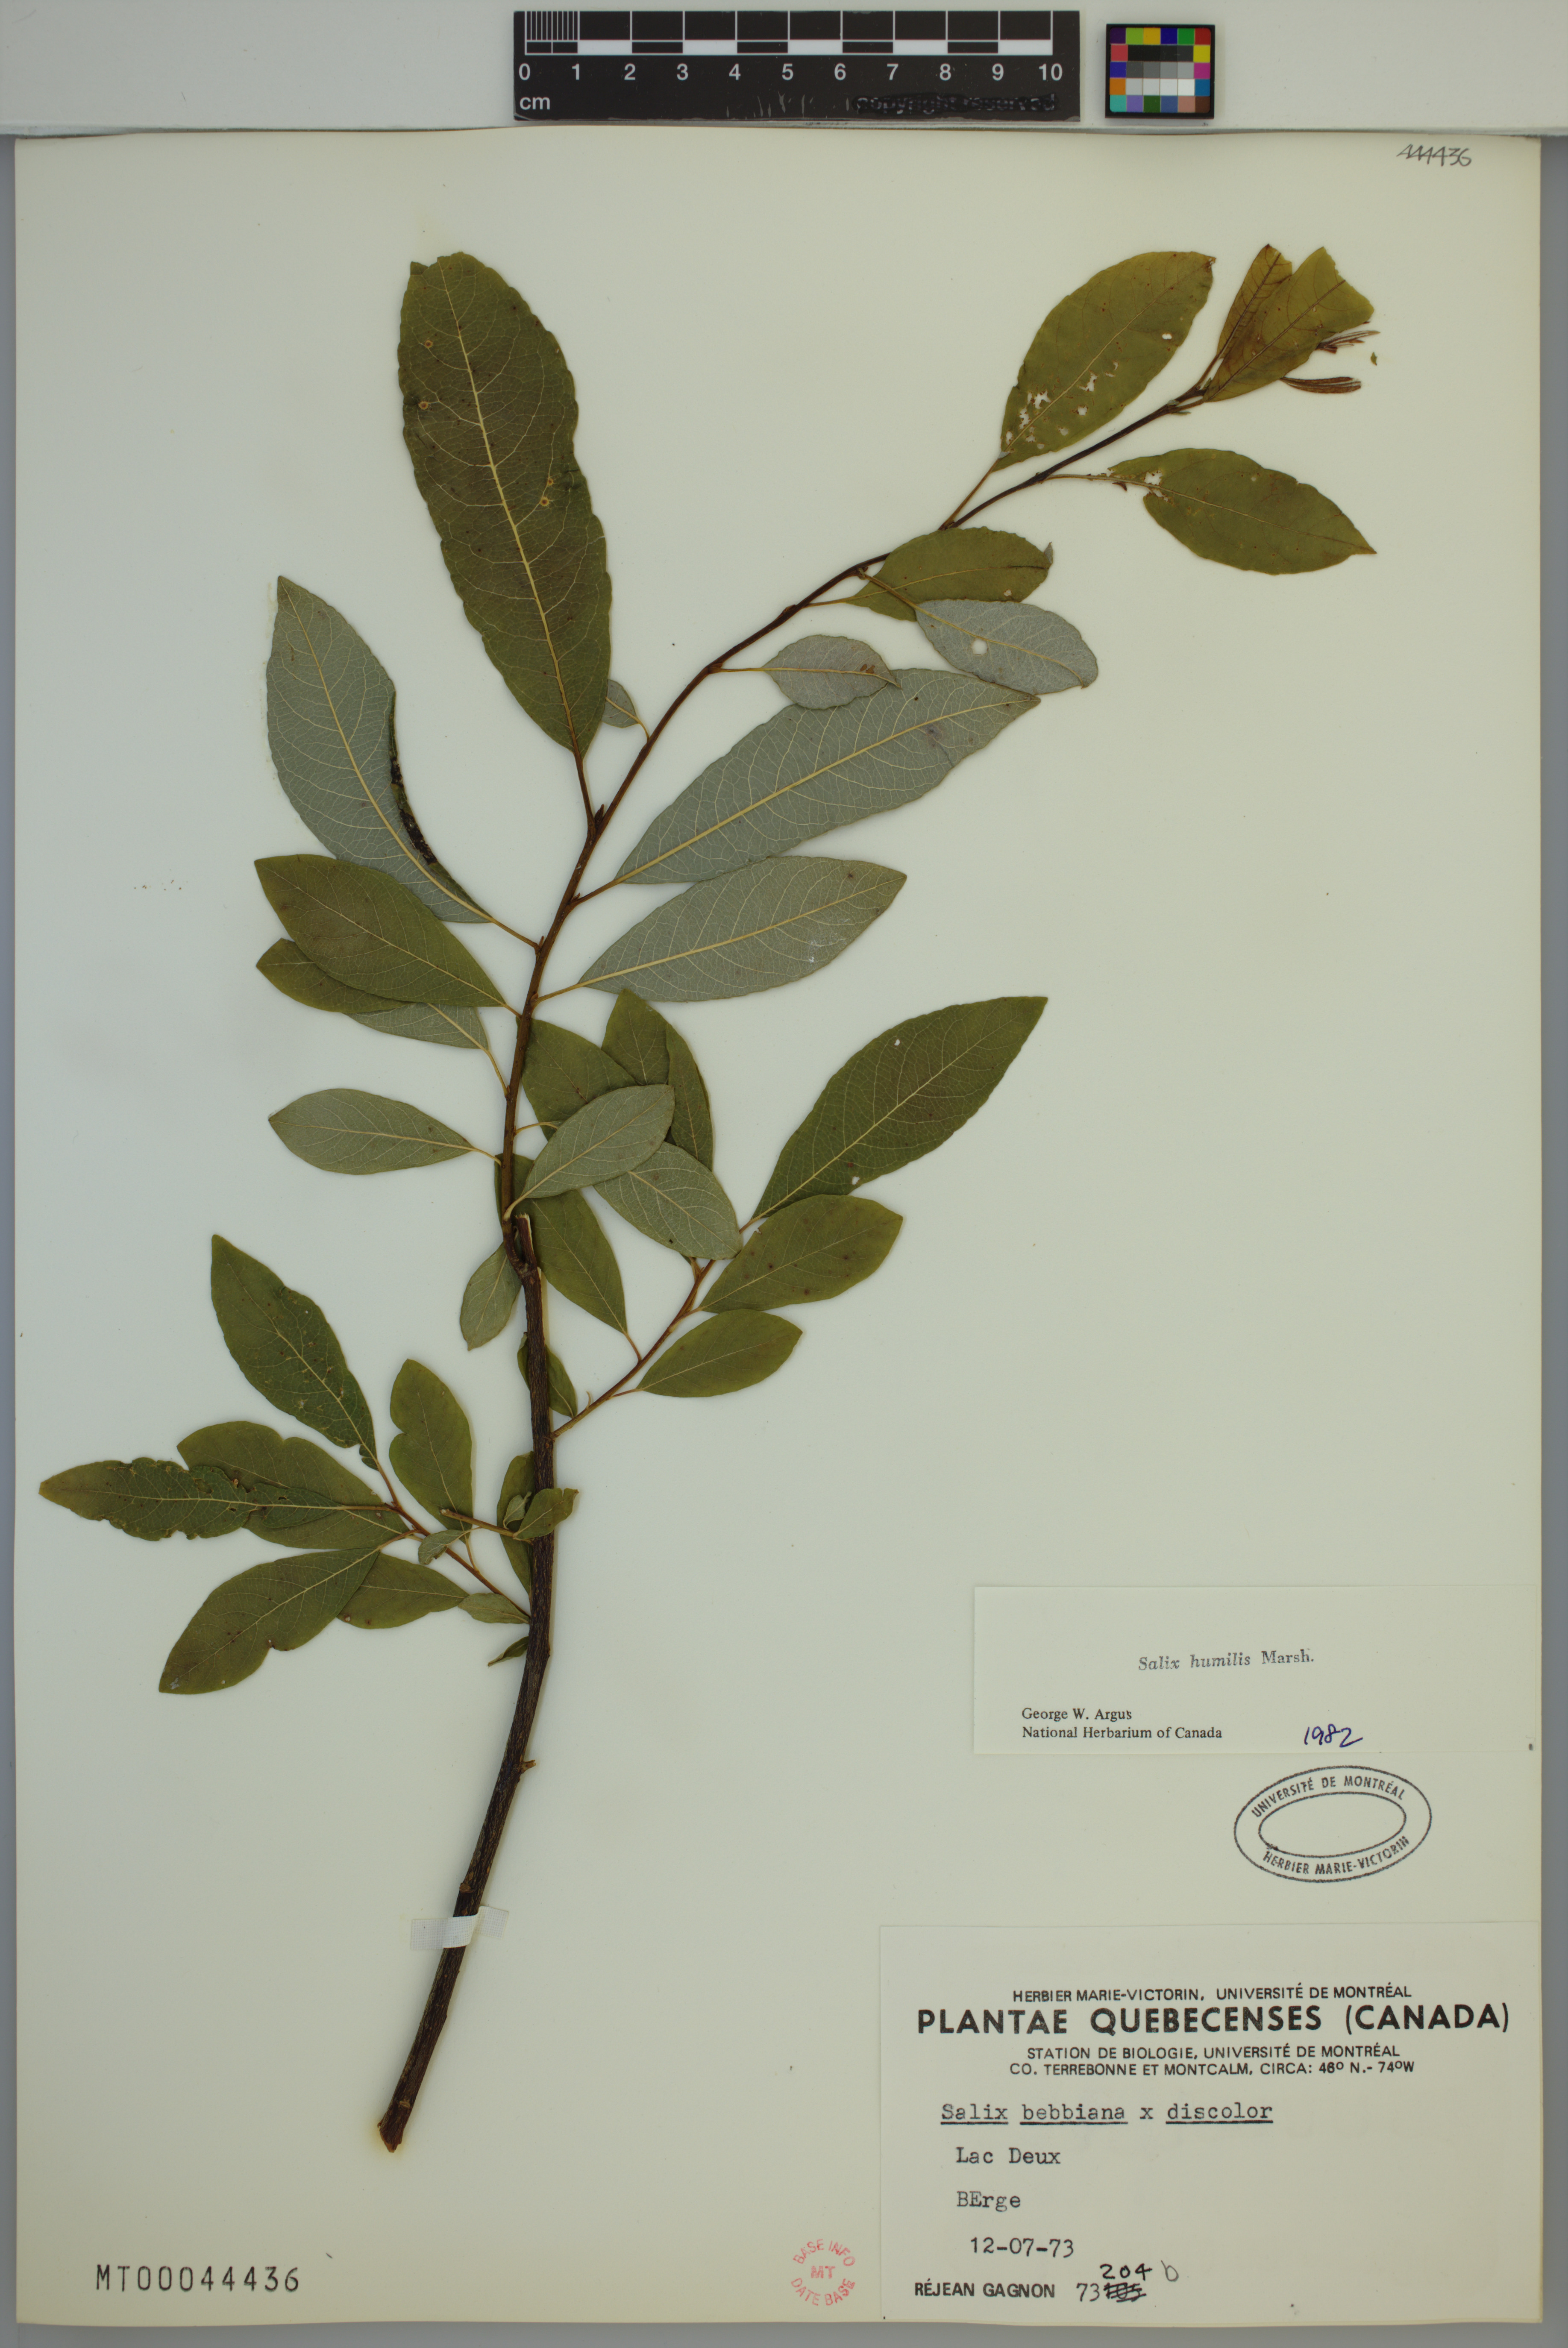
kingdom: Plantae
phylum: Tracheophyta
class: Magnoliopsida
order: Malpighiales
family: Salicaceae
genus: Salix
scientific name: Salix humilis
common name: Prairie willow
